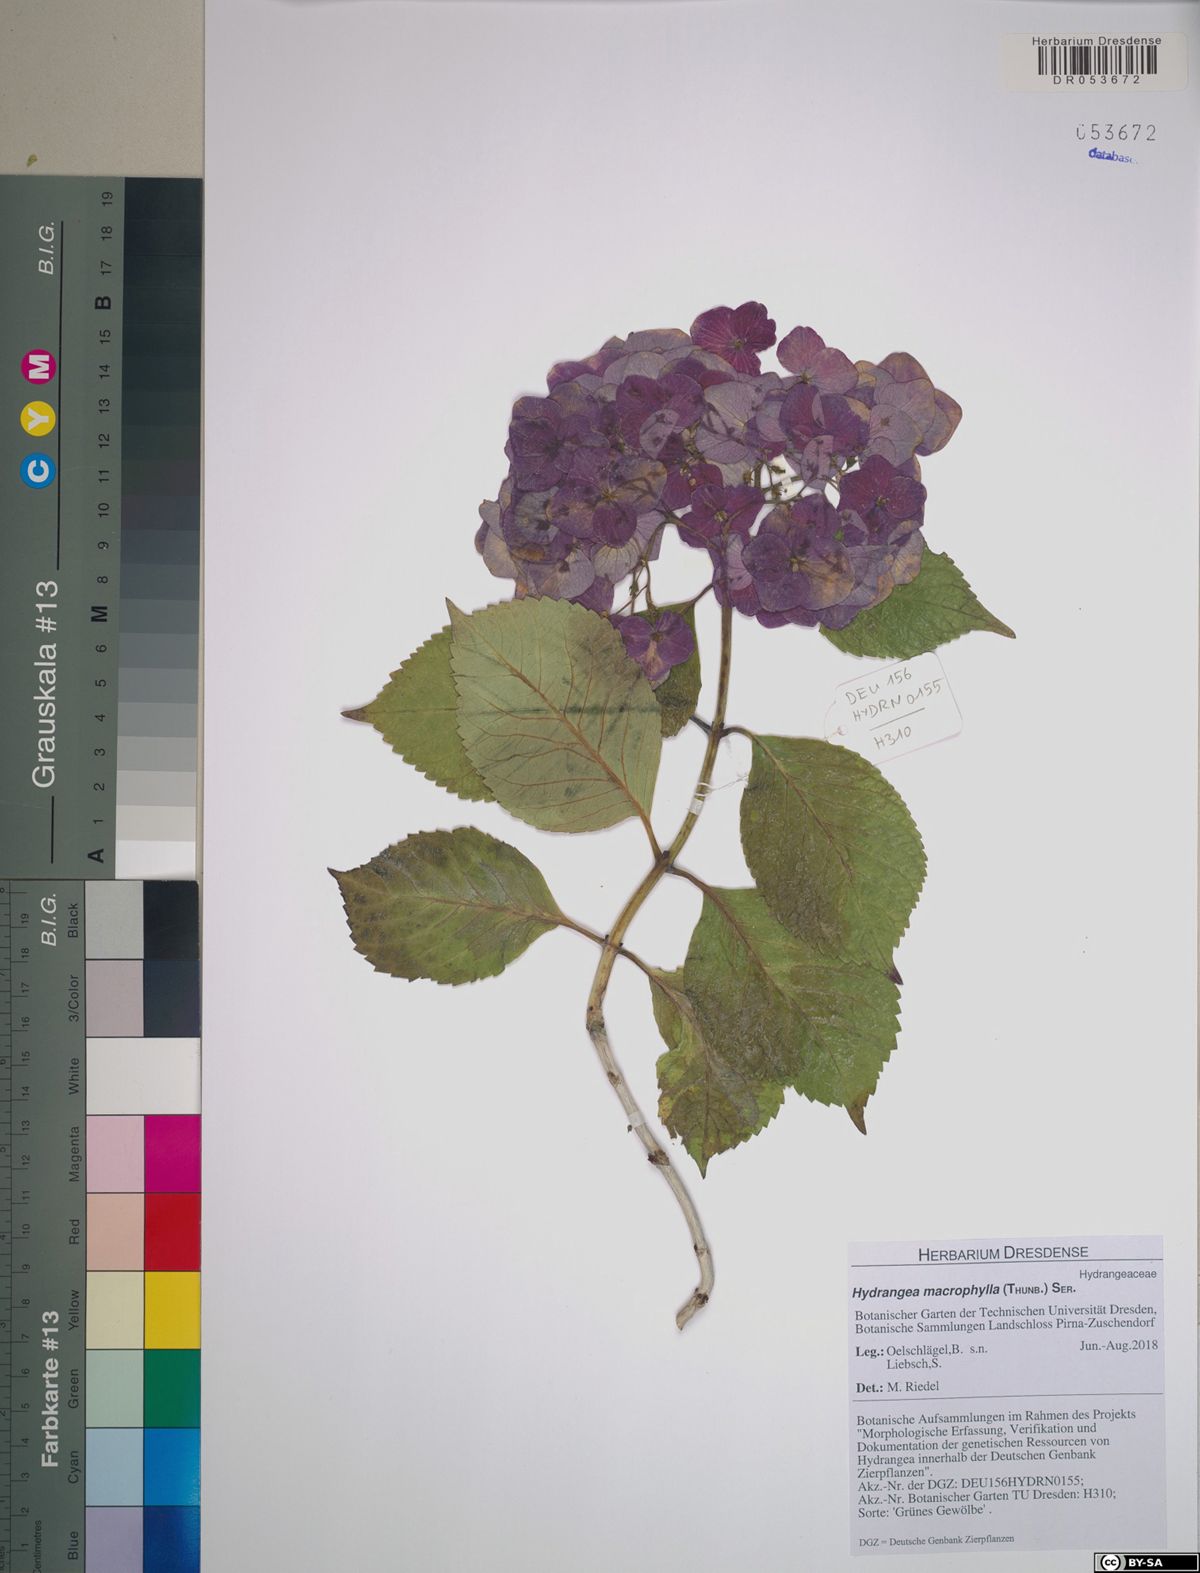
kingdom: Plantae
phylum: Tracheophyta
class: Magnoliopsida
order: Cornales
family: Hydrangeaceae
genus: Hydrangea
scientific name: Hydrangea macrophylla
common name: Hydrangea
